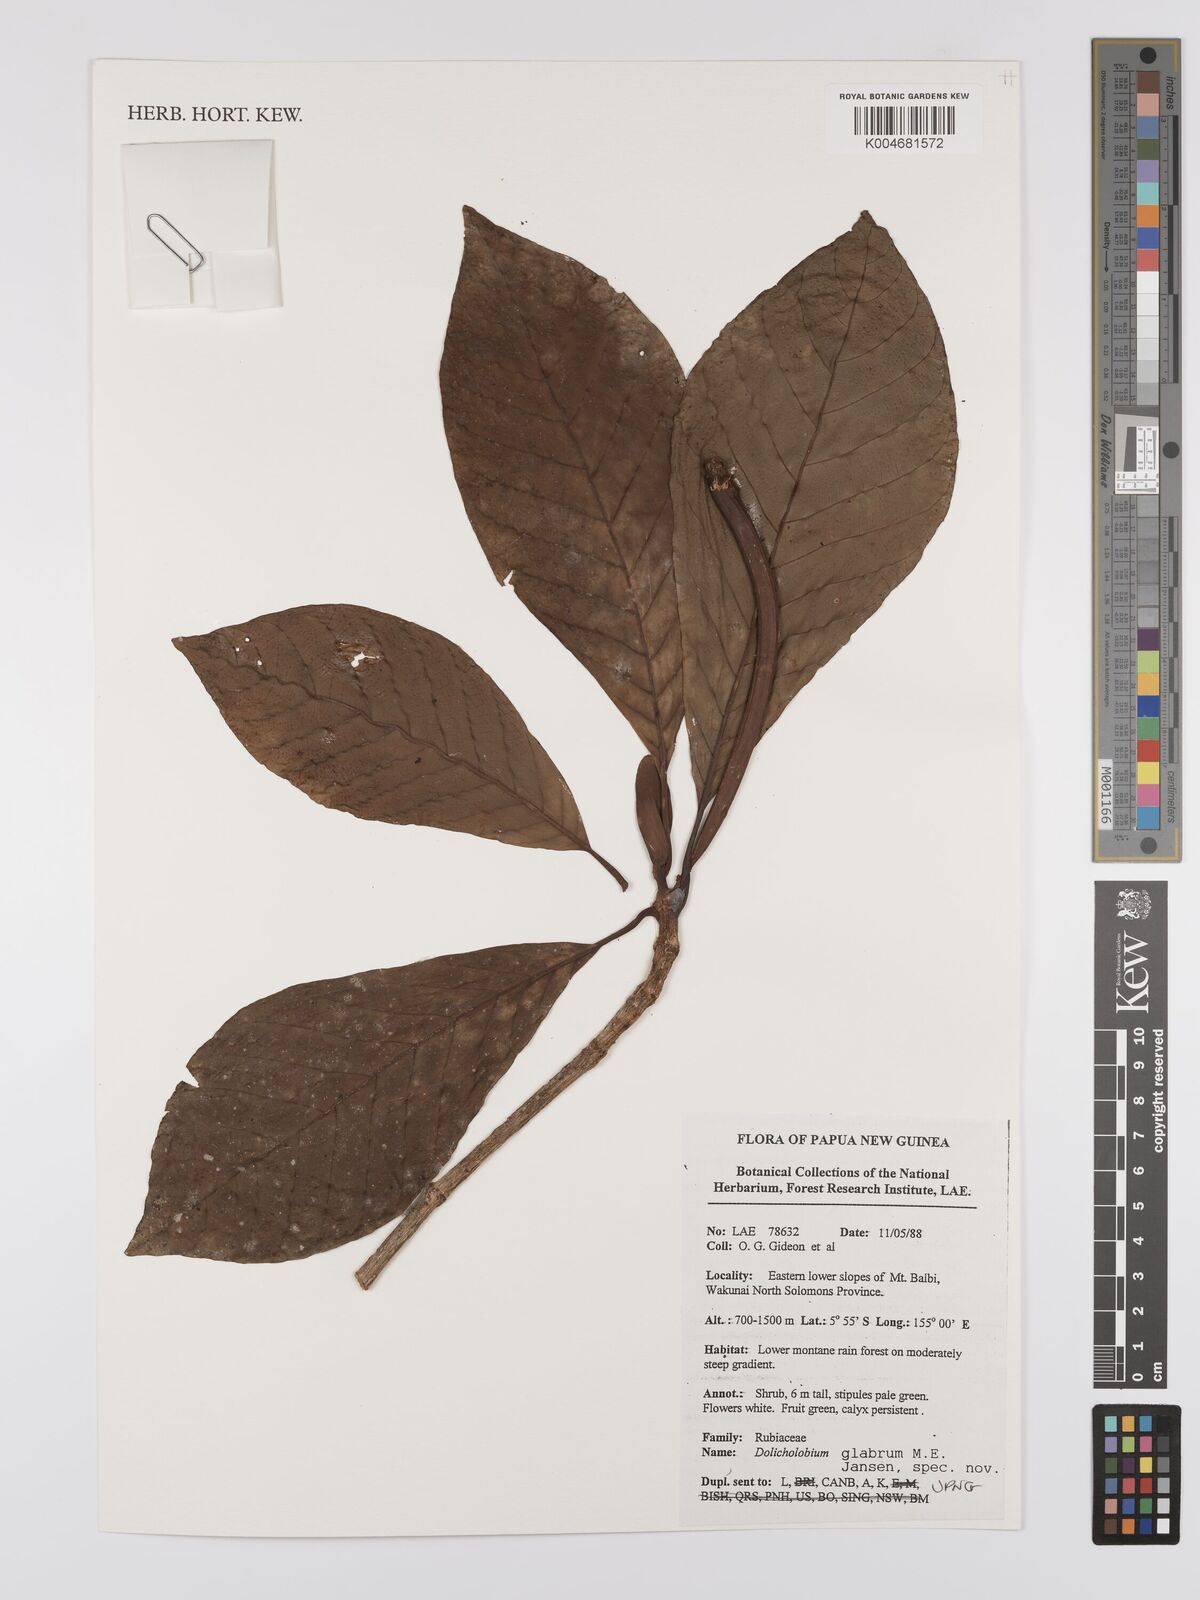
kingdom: Plantae
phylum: Tracheophyta
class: Magnoliopsida
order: Gentianales
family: Rubiaceae
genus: Dolicholobium
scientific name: Dolicholobium glabrum
